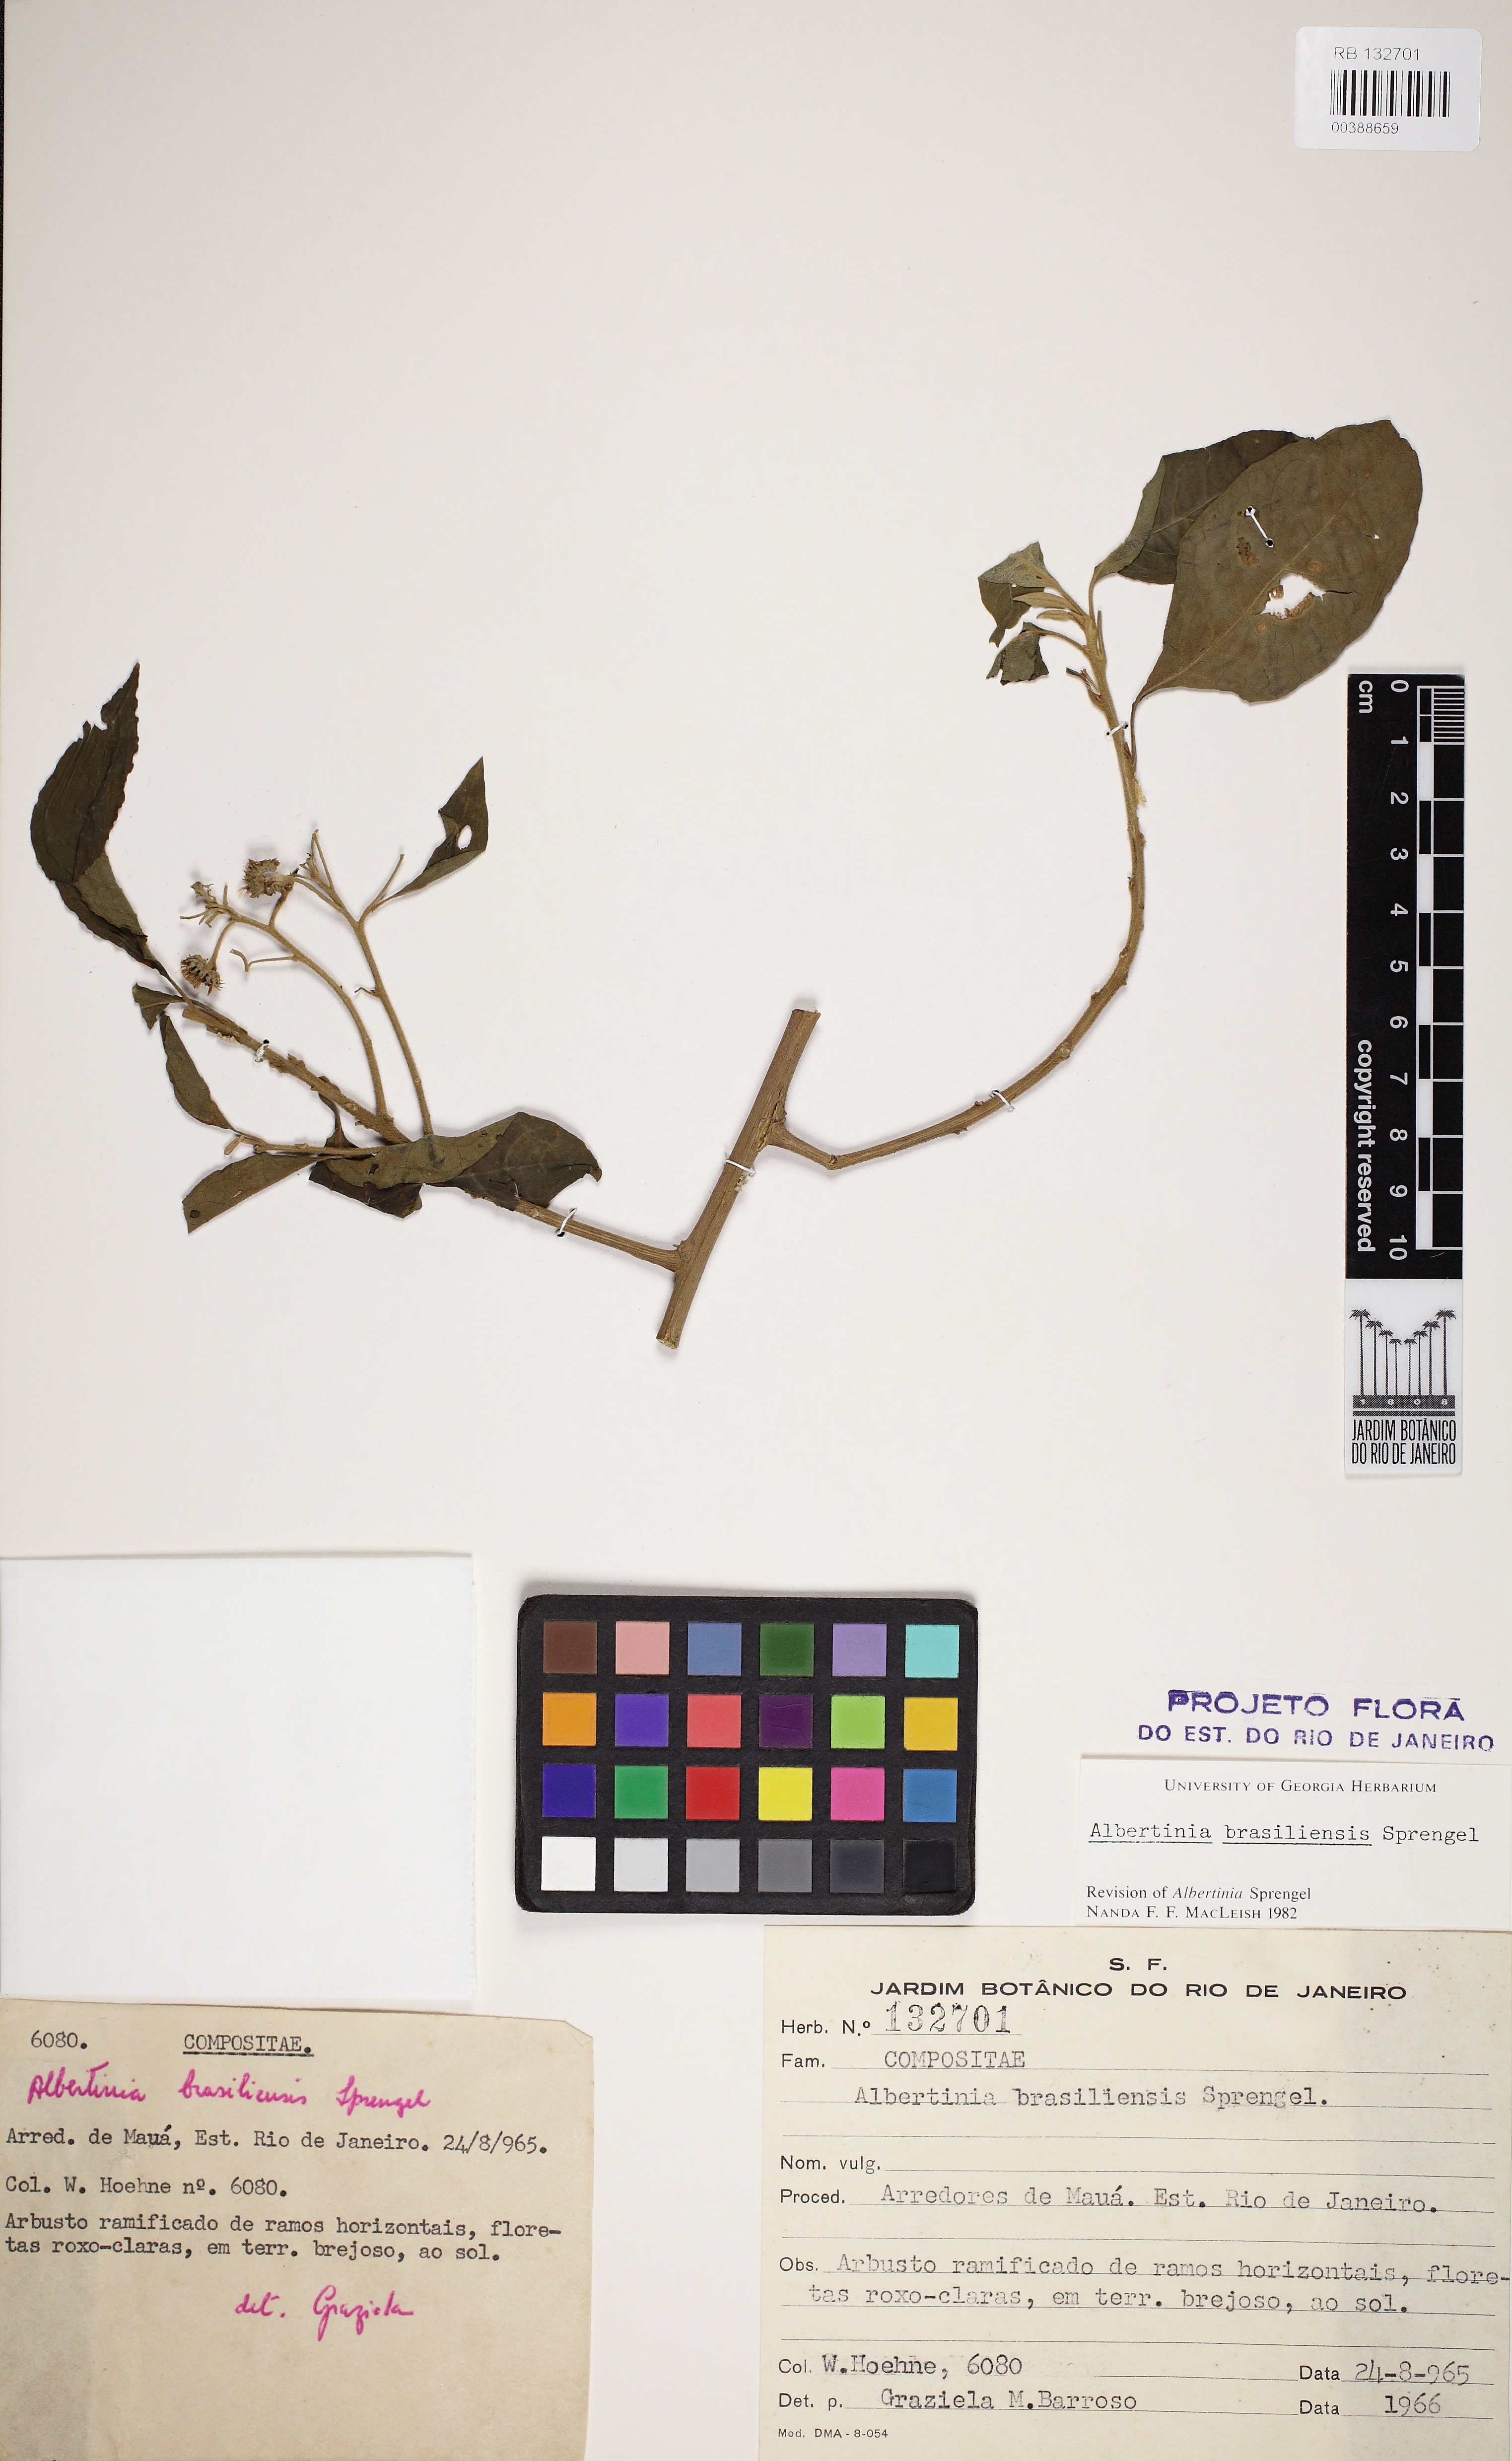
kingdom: Plantae
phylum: Tracheophyta
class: Magnoliopsida
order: Asterales
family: Asteraceae
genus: Albertinia
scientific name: Albertinia brasiliensis
